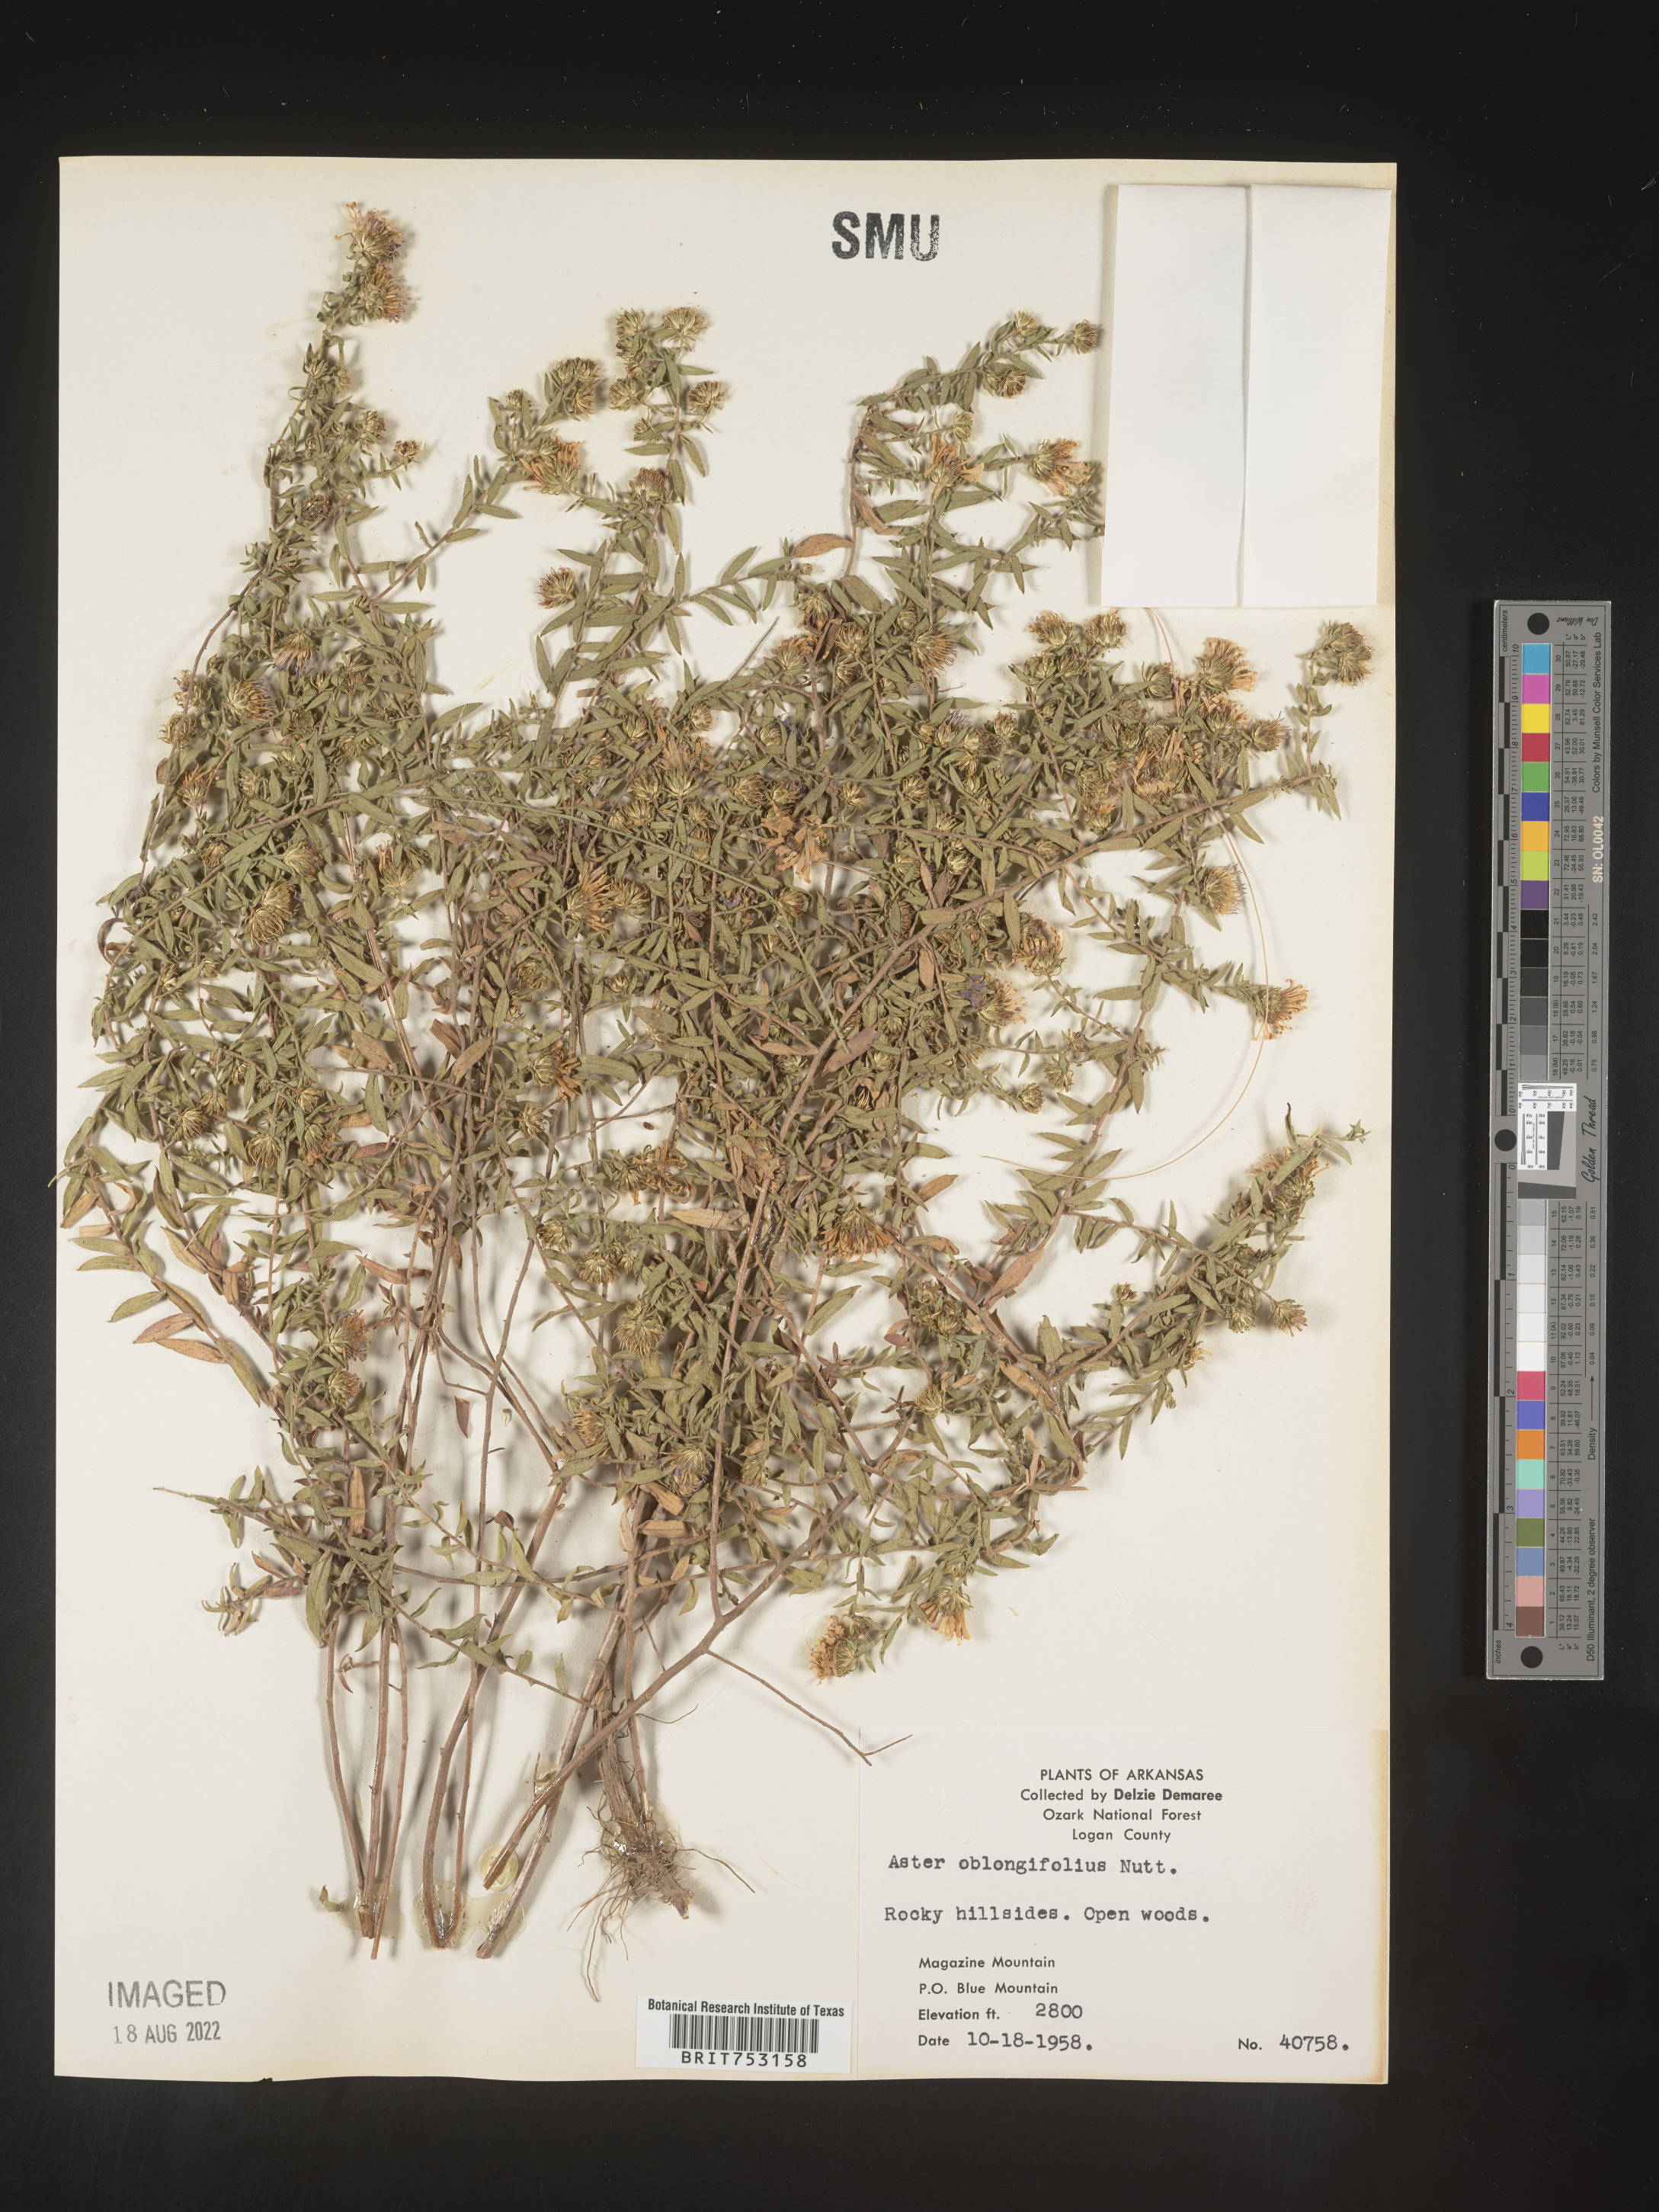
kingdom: Plantae
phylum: Tracheophyta
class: Magnoliopsida
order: Asterales
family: Asteraceae
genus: Symphyotrichum
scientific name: Symphyotrichum oblongifolium
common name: Aromatic aster
